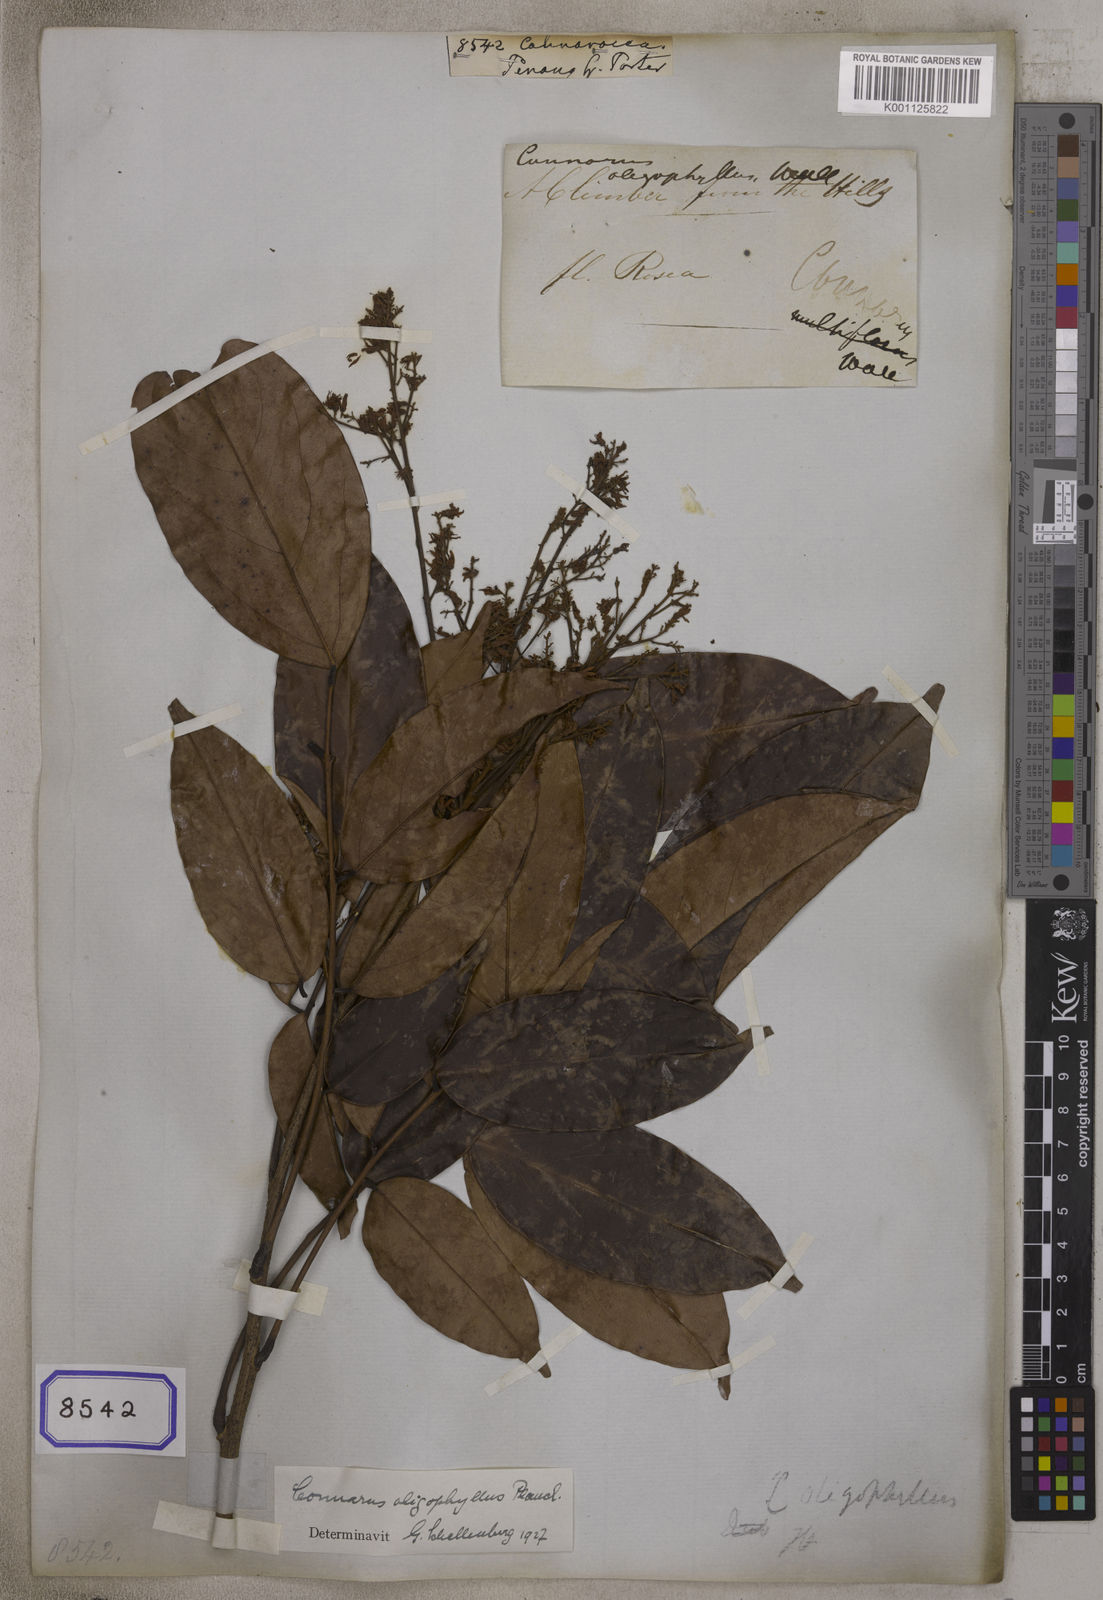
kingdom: Plantae
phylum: Tracheophyta
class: Magnoliopsida
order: Oxalidales
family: Connaraceae
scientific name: Connaraceae
